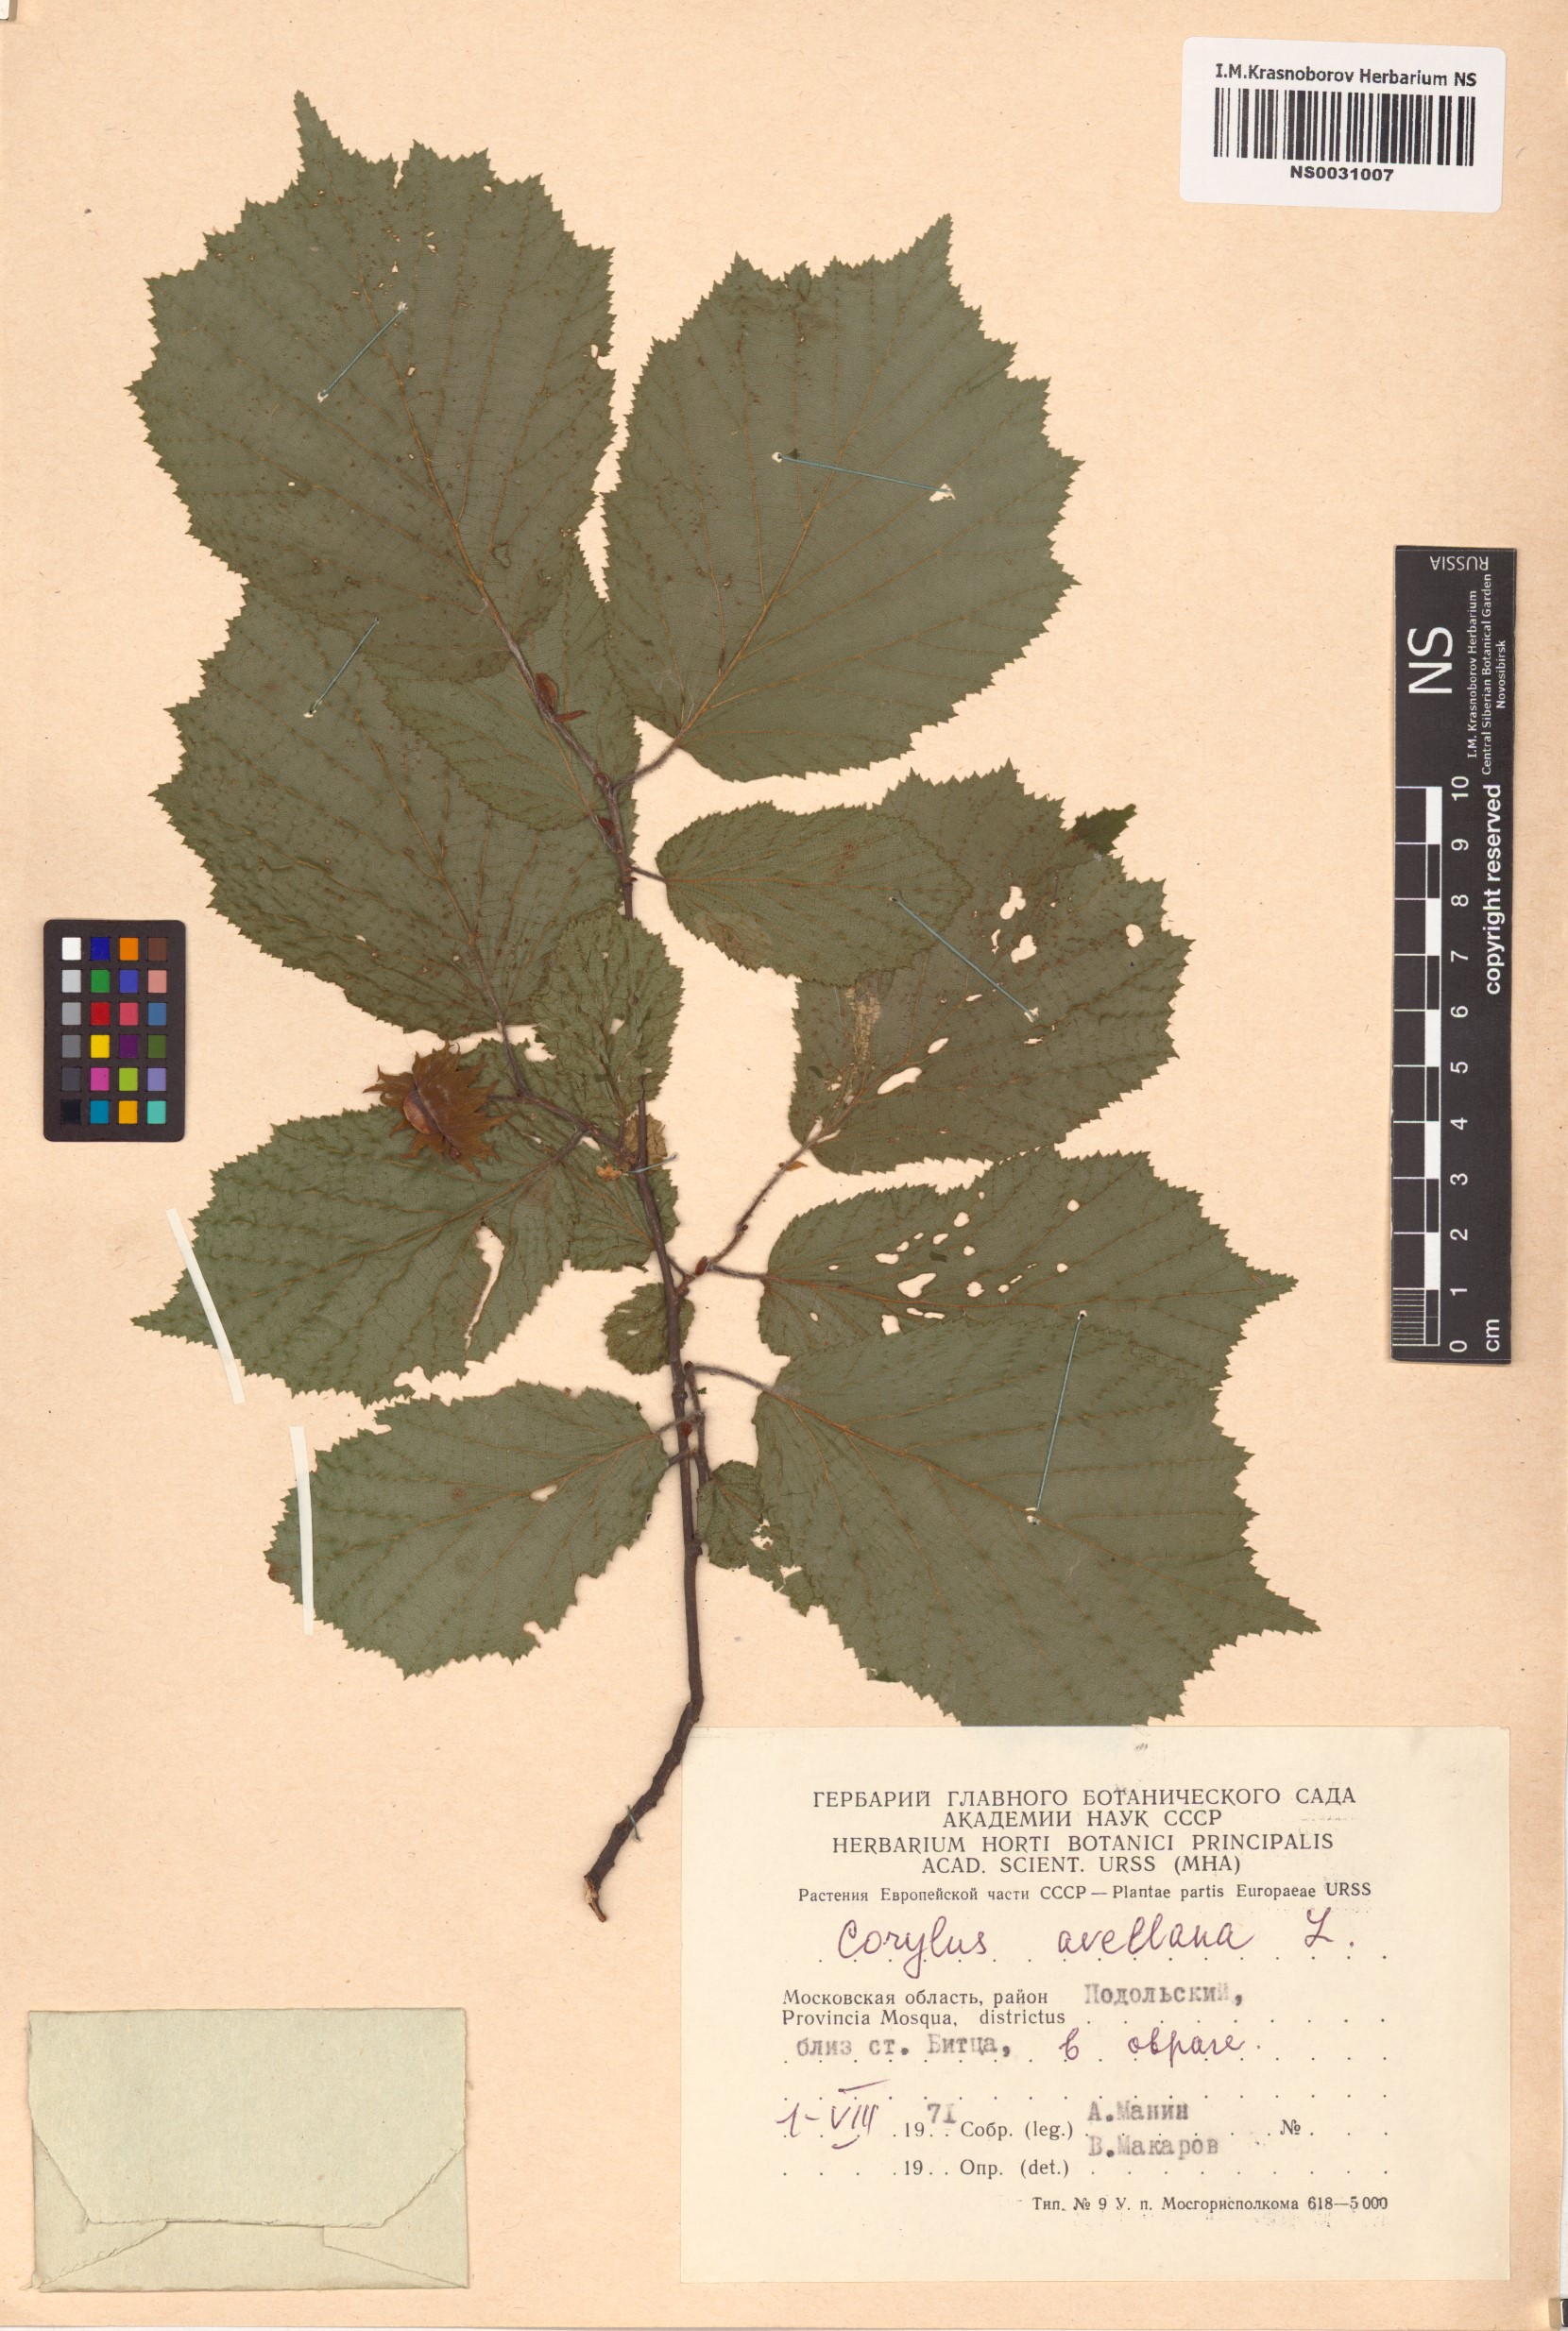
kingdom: Plantae
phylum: Tracheophyta
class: Magnoliopsida
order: Fagales
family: Betulaceae
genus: Corylus
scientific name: Corylus avellana
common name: European hazel
